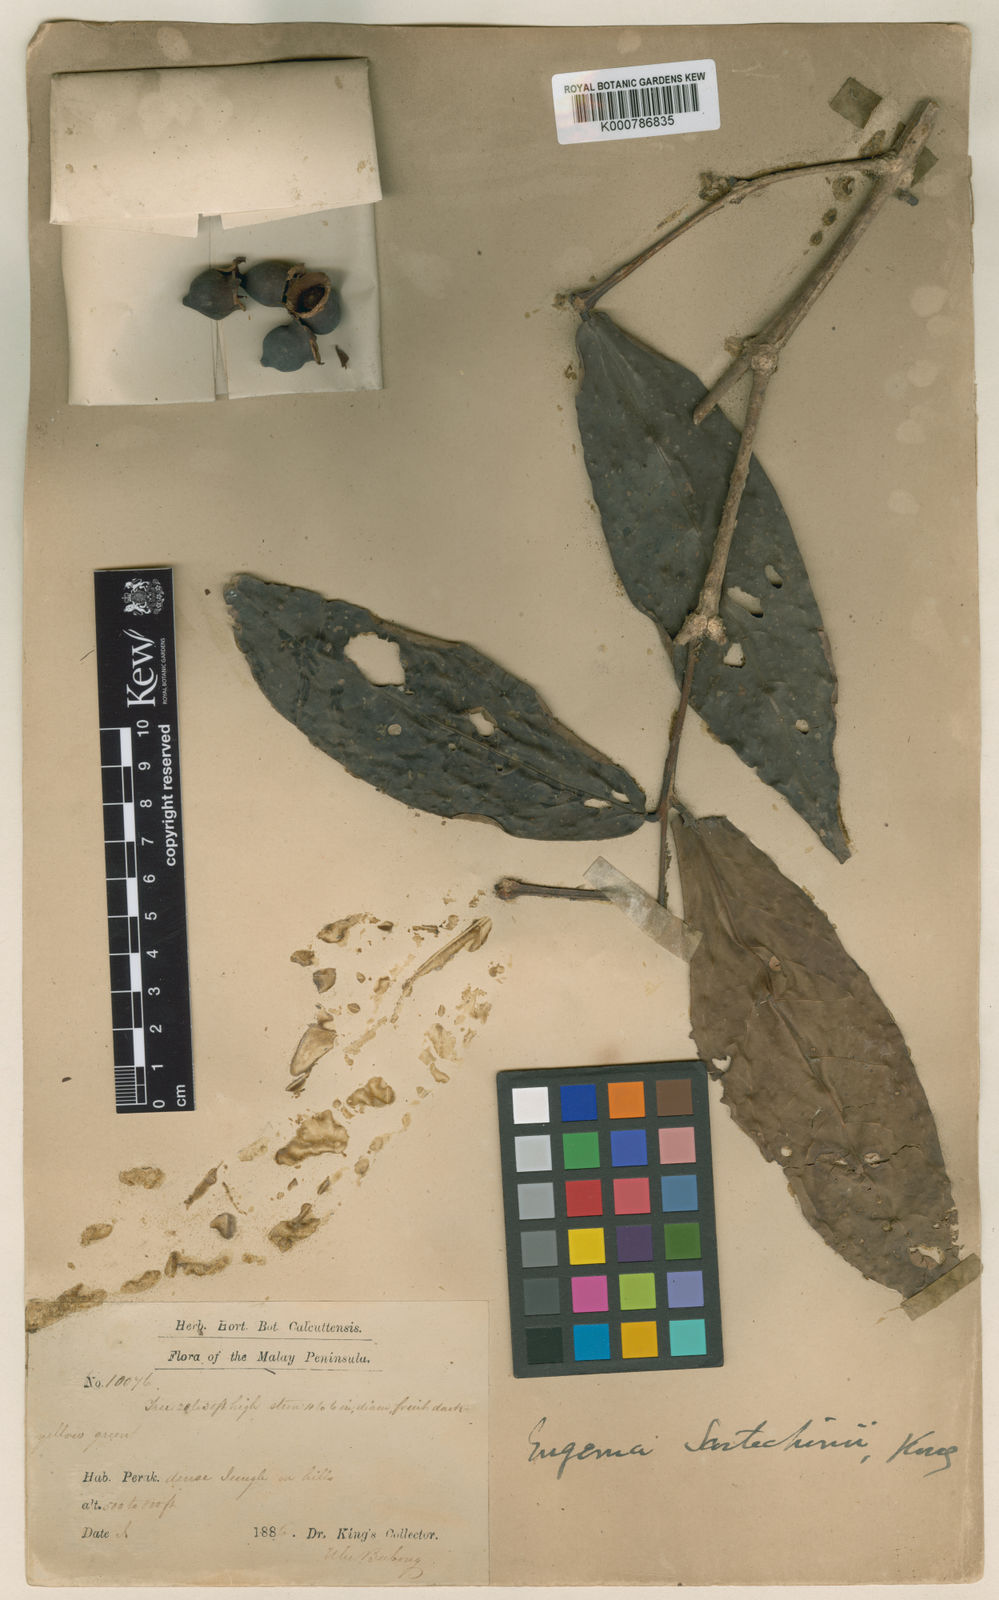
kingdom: Plantae
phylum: Tracheophyta
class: Magnoliopsida
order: Myrtales
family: Myrtaceae
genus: Syzygium
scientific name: Syzygium scortechinii
